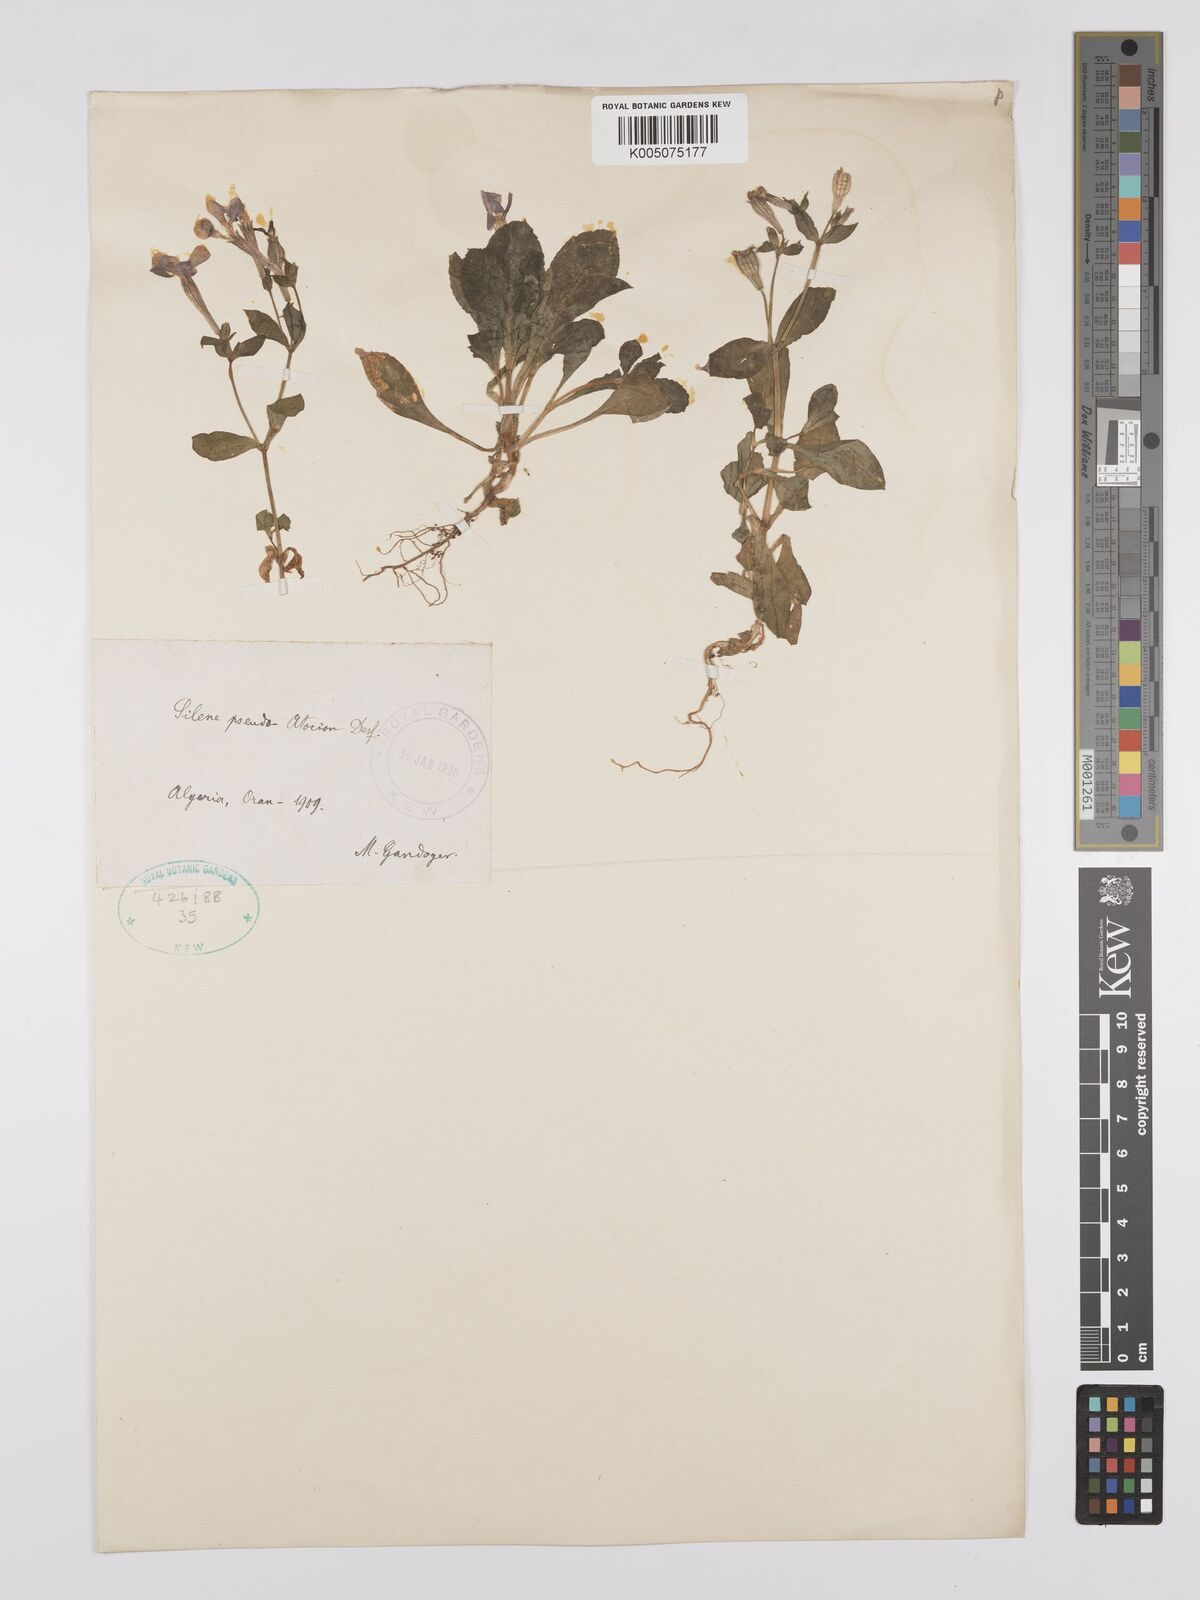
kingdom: Plantae
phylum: Tracheophyta
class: Magnoliopsida
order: Caryophyllales
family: Caryophyllaceae
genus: Silene
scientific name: Silene pseudoatocion
